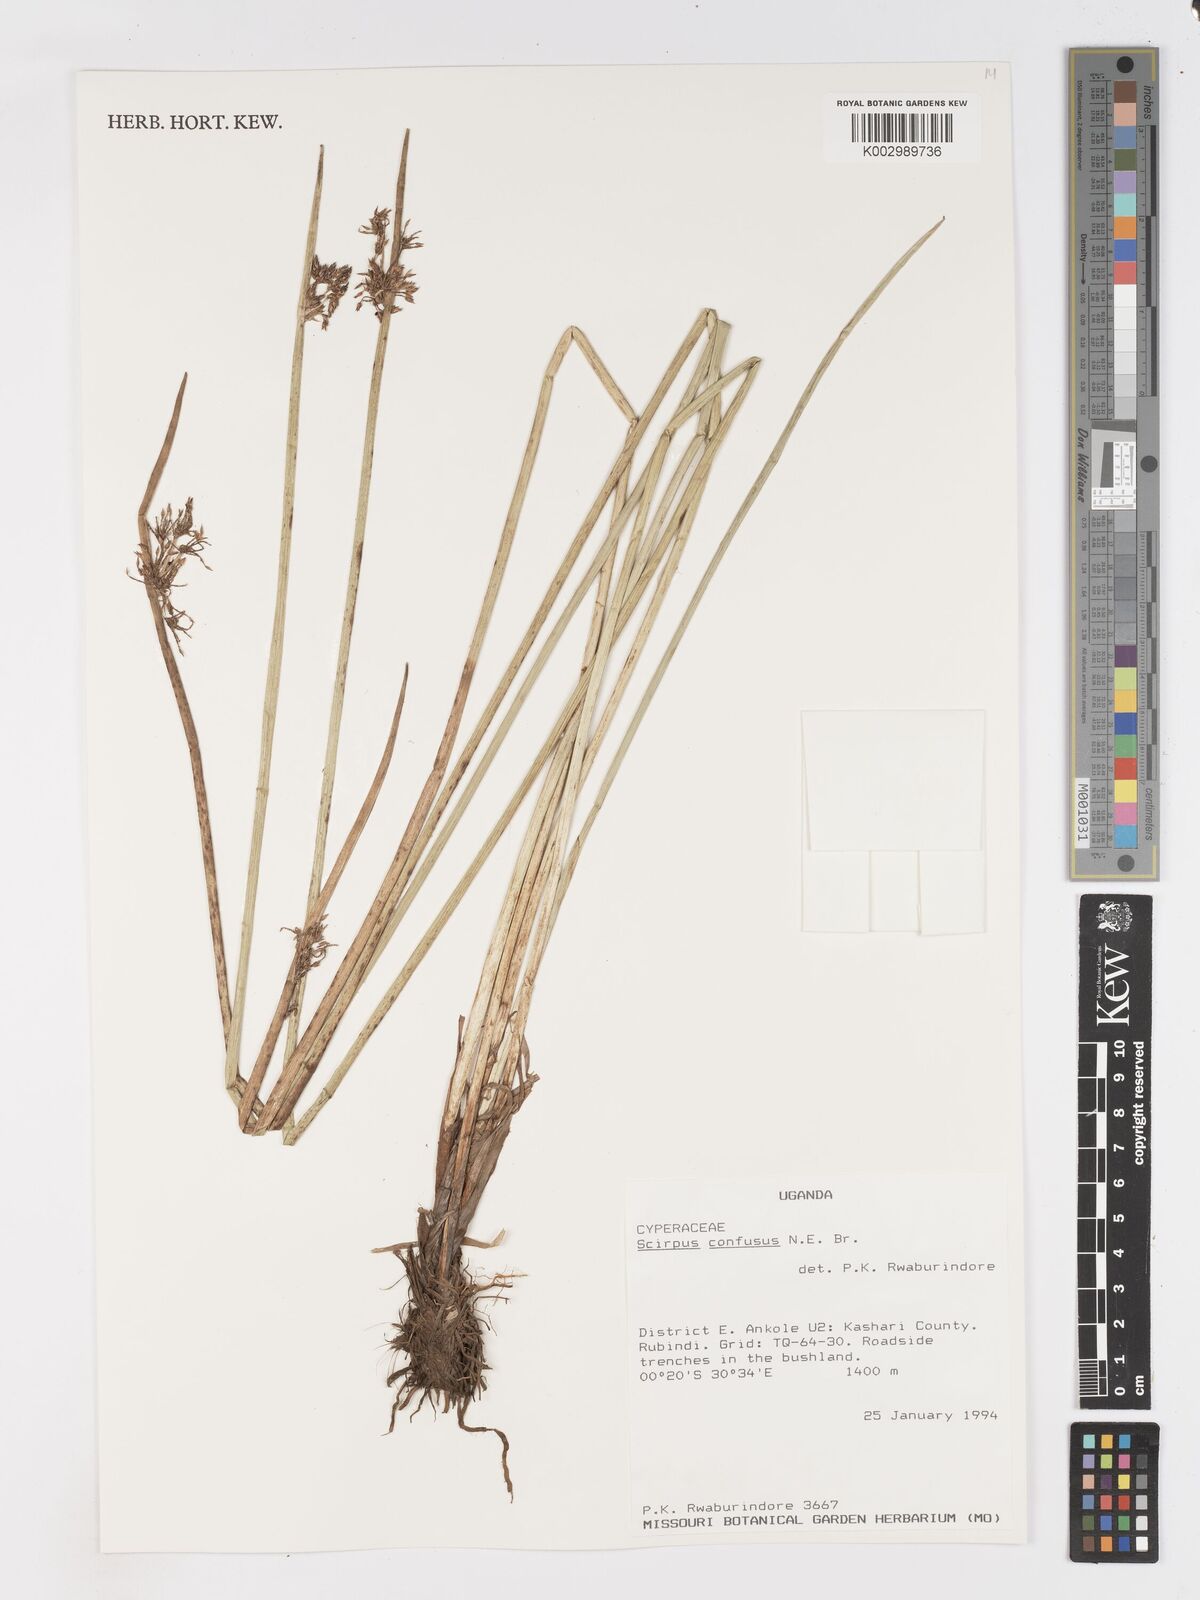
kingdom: Plantae
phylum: Tracheophyta
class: Liliopsida
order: Poales
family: Cyperaceae
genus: Schoenoplectiella
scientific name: Schoenoplectiella confusa
